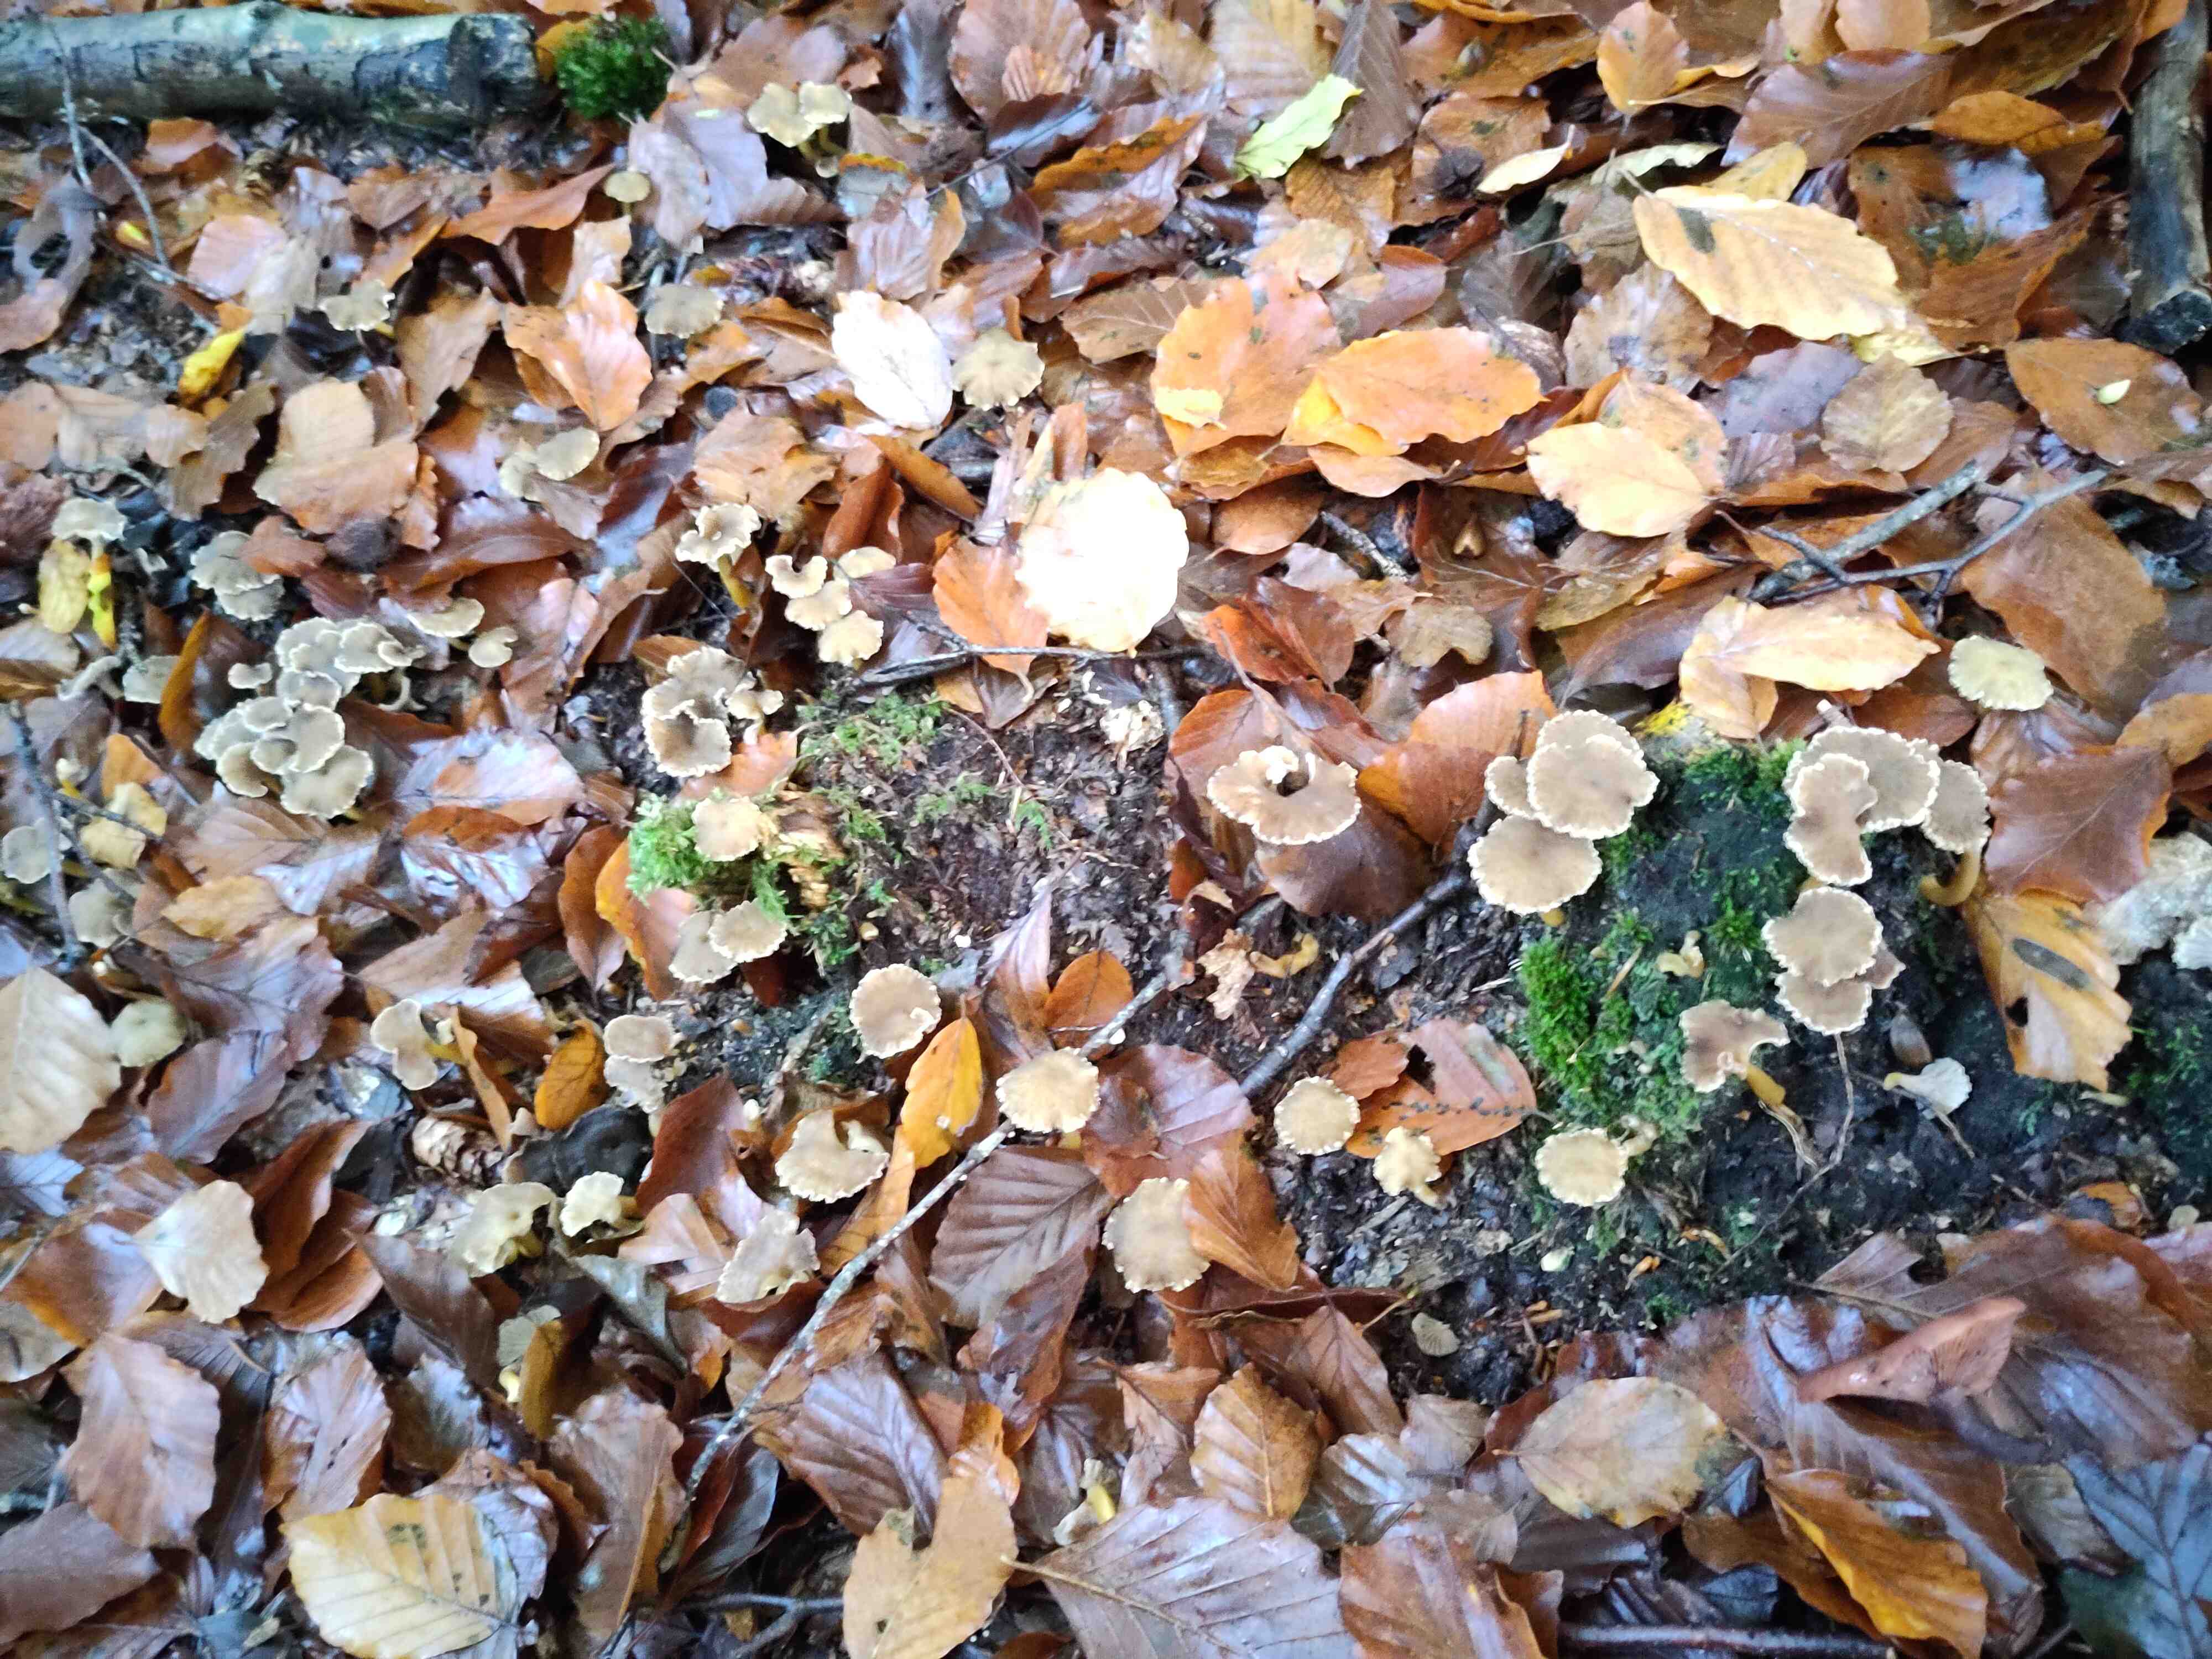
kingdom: Fungi
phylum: Basidiomycota
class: Agaricomycetes
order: Cantharellales
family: Hydnaceae
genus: Craterellus
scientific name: Craterellus tubaeformis
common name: tragt-kantarel
